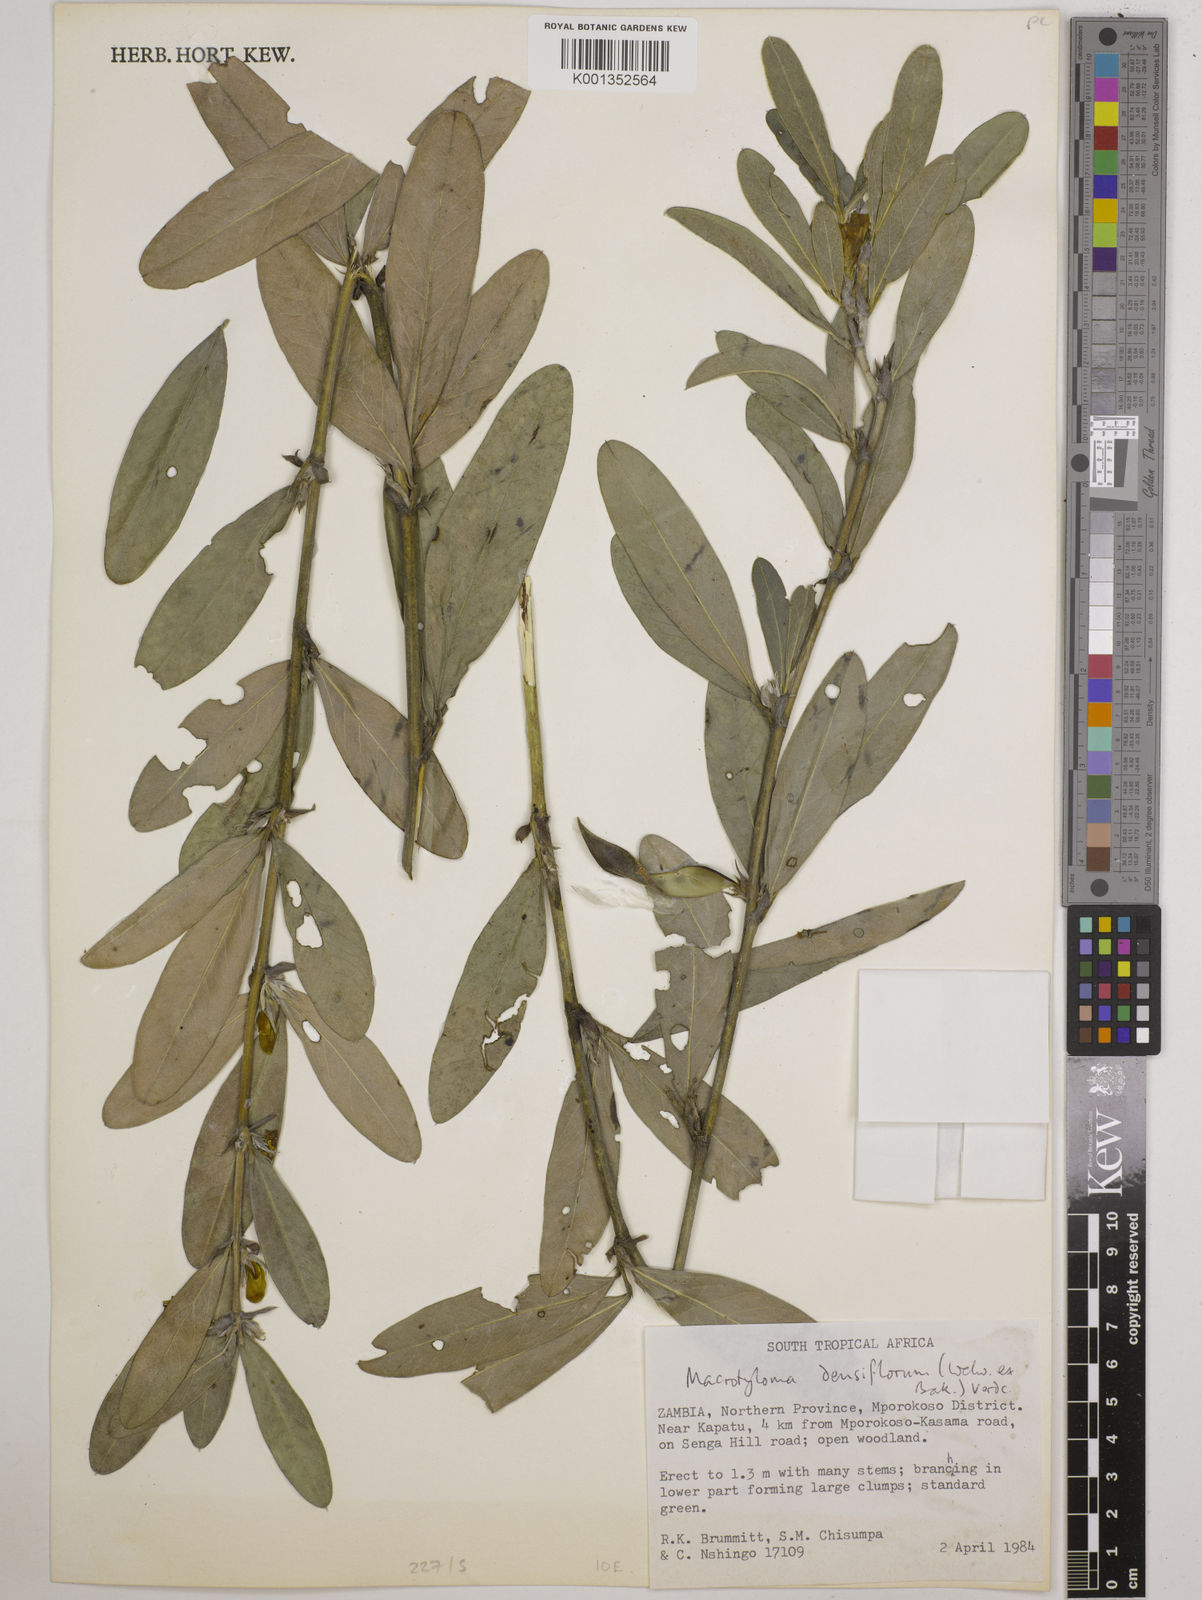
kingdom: Plantae
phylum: Tracheophyta
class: Magnoliopsida
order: Fabales
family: Fabaceae
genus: Macrotyloma
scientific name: Macrotyloma densiflorum
